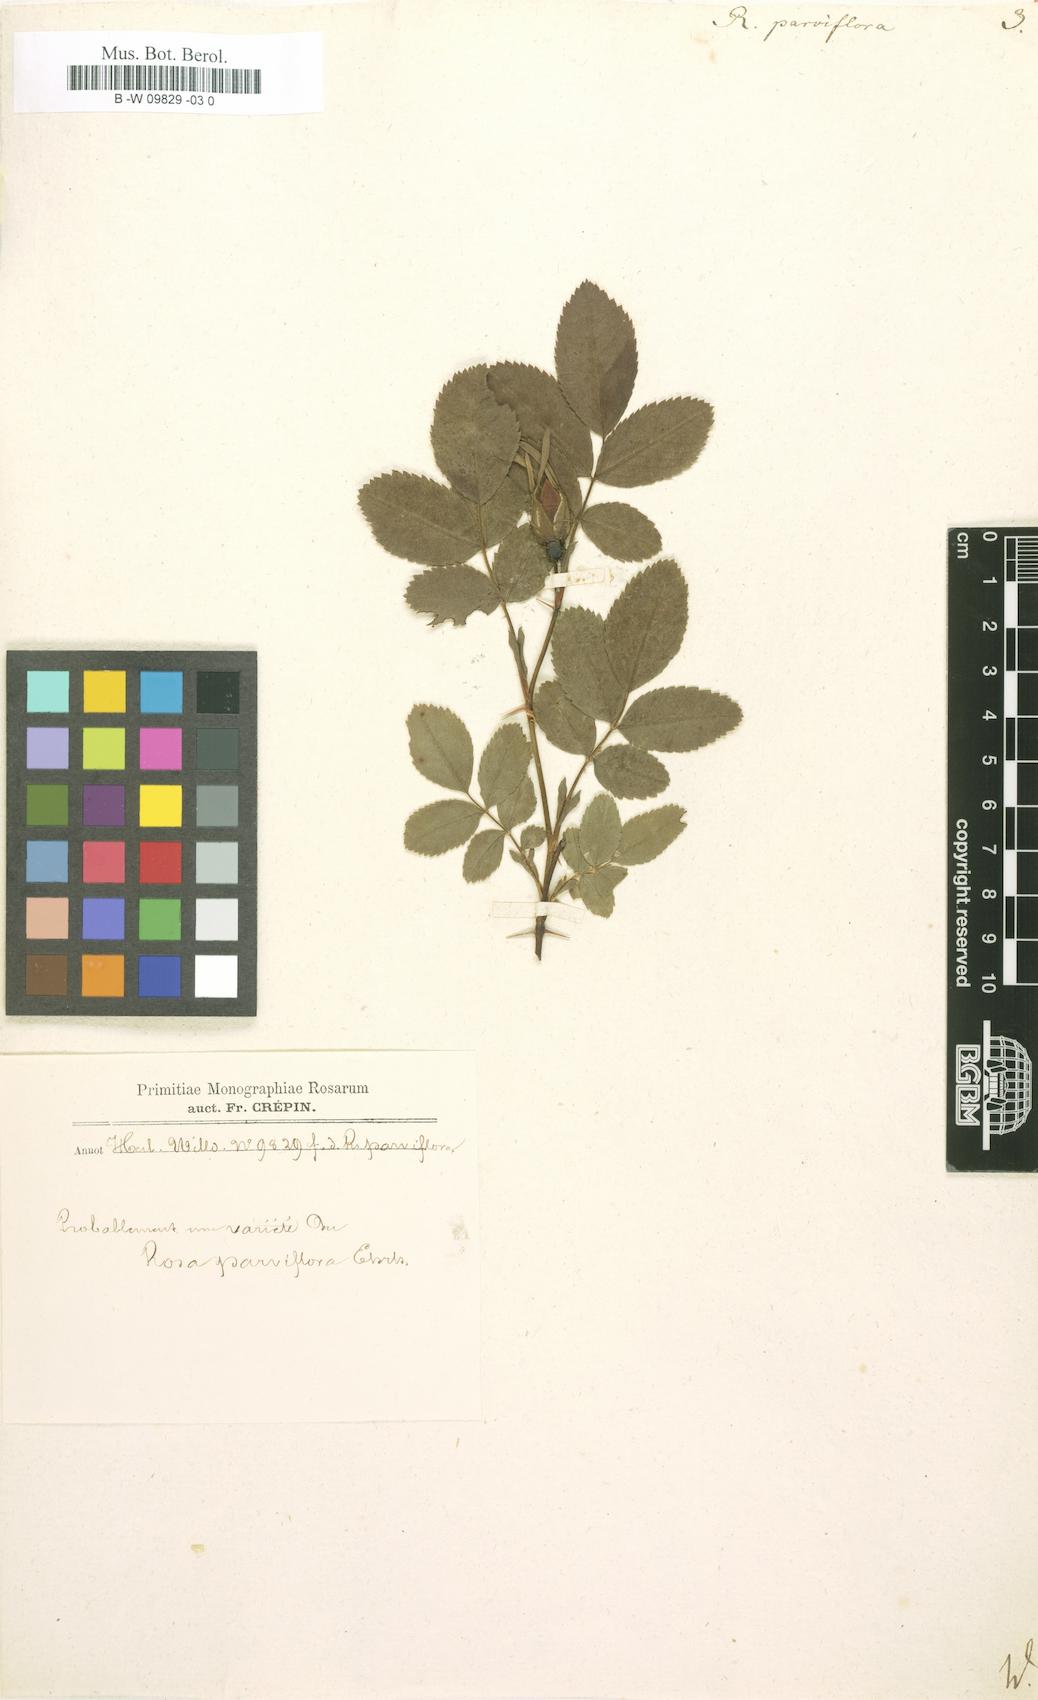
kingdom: Plantae
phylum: Tracheophyta
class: Magnoliopsida
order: Rosales
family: Rosaceae
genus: Rosa
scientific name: Rosa carolina
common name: Pasture rose
